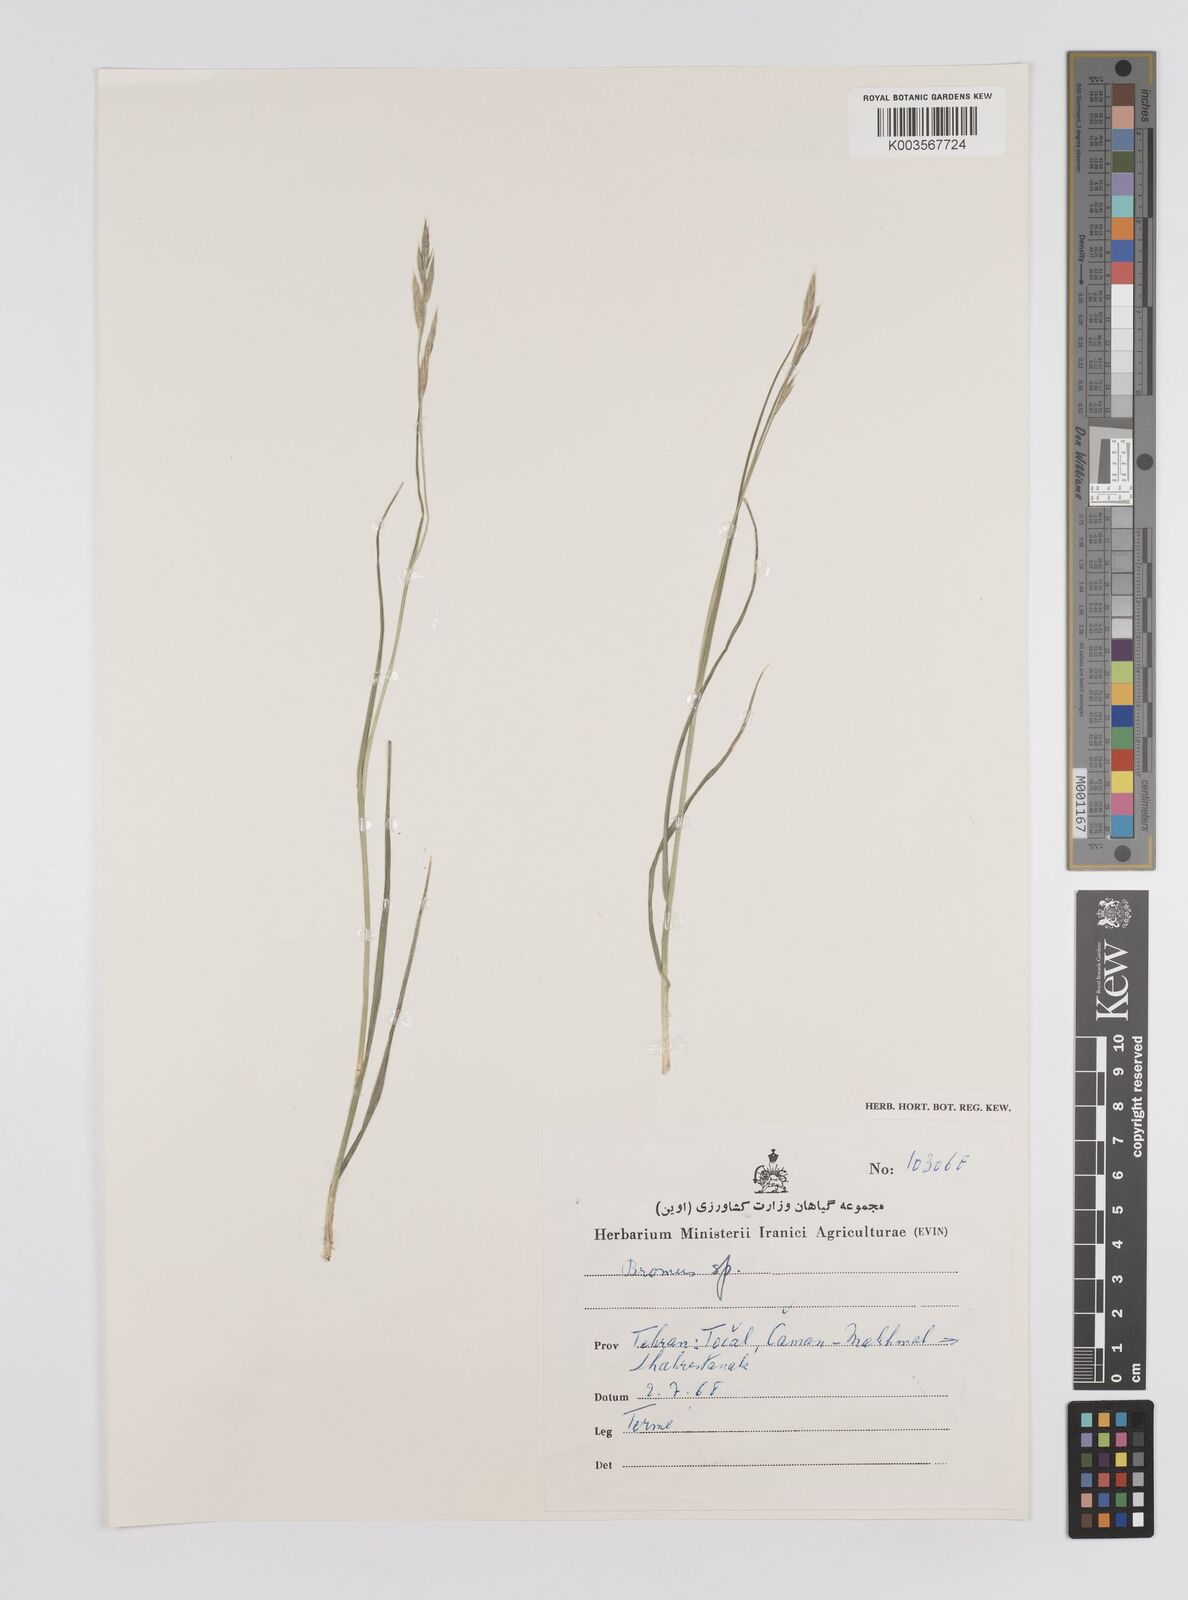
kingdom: Plantae
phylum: Tracheophyta
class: Liliopsida
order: Poales
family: Poaceae
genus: Bromus
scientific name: Bromus
